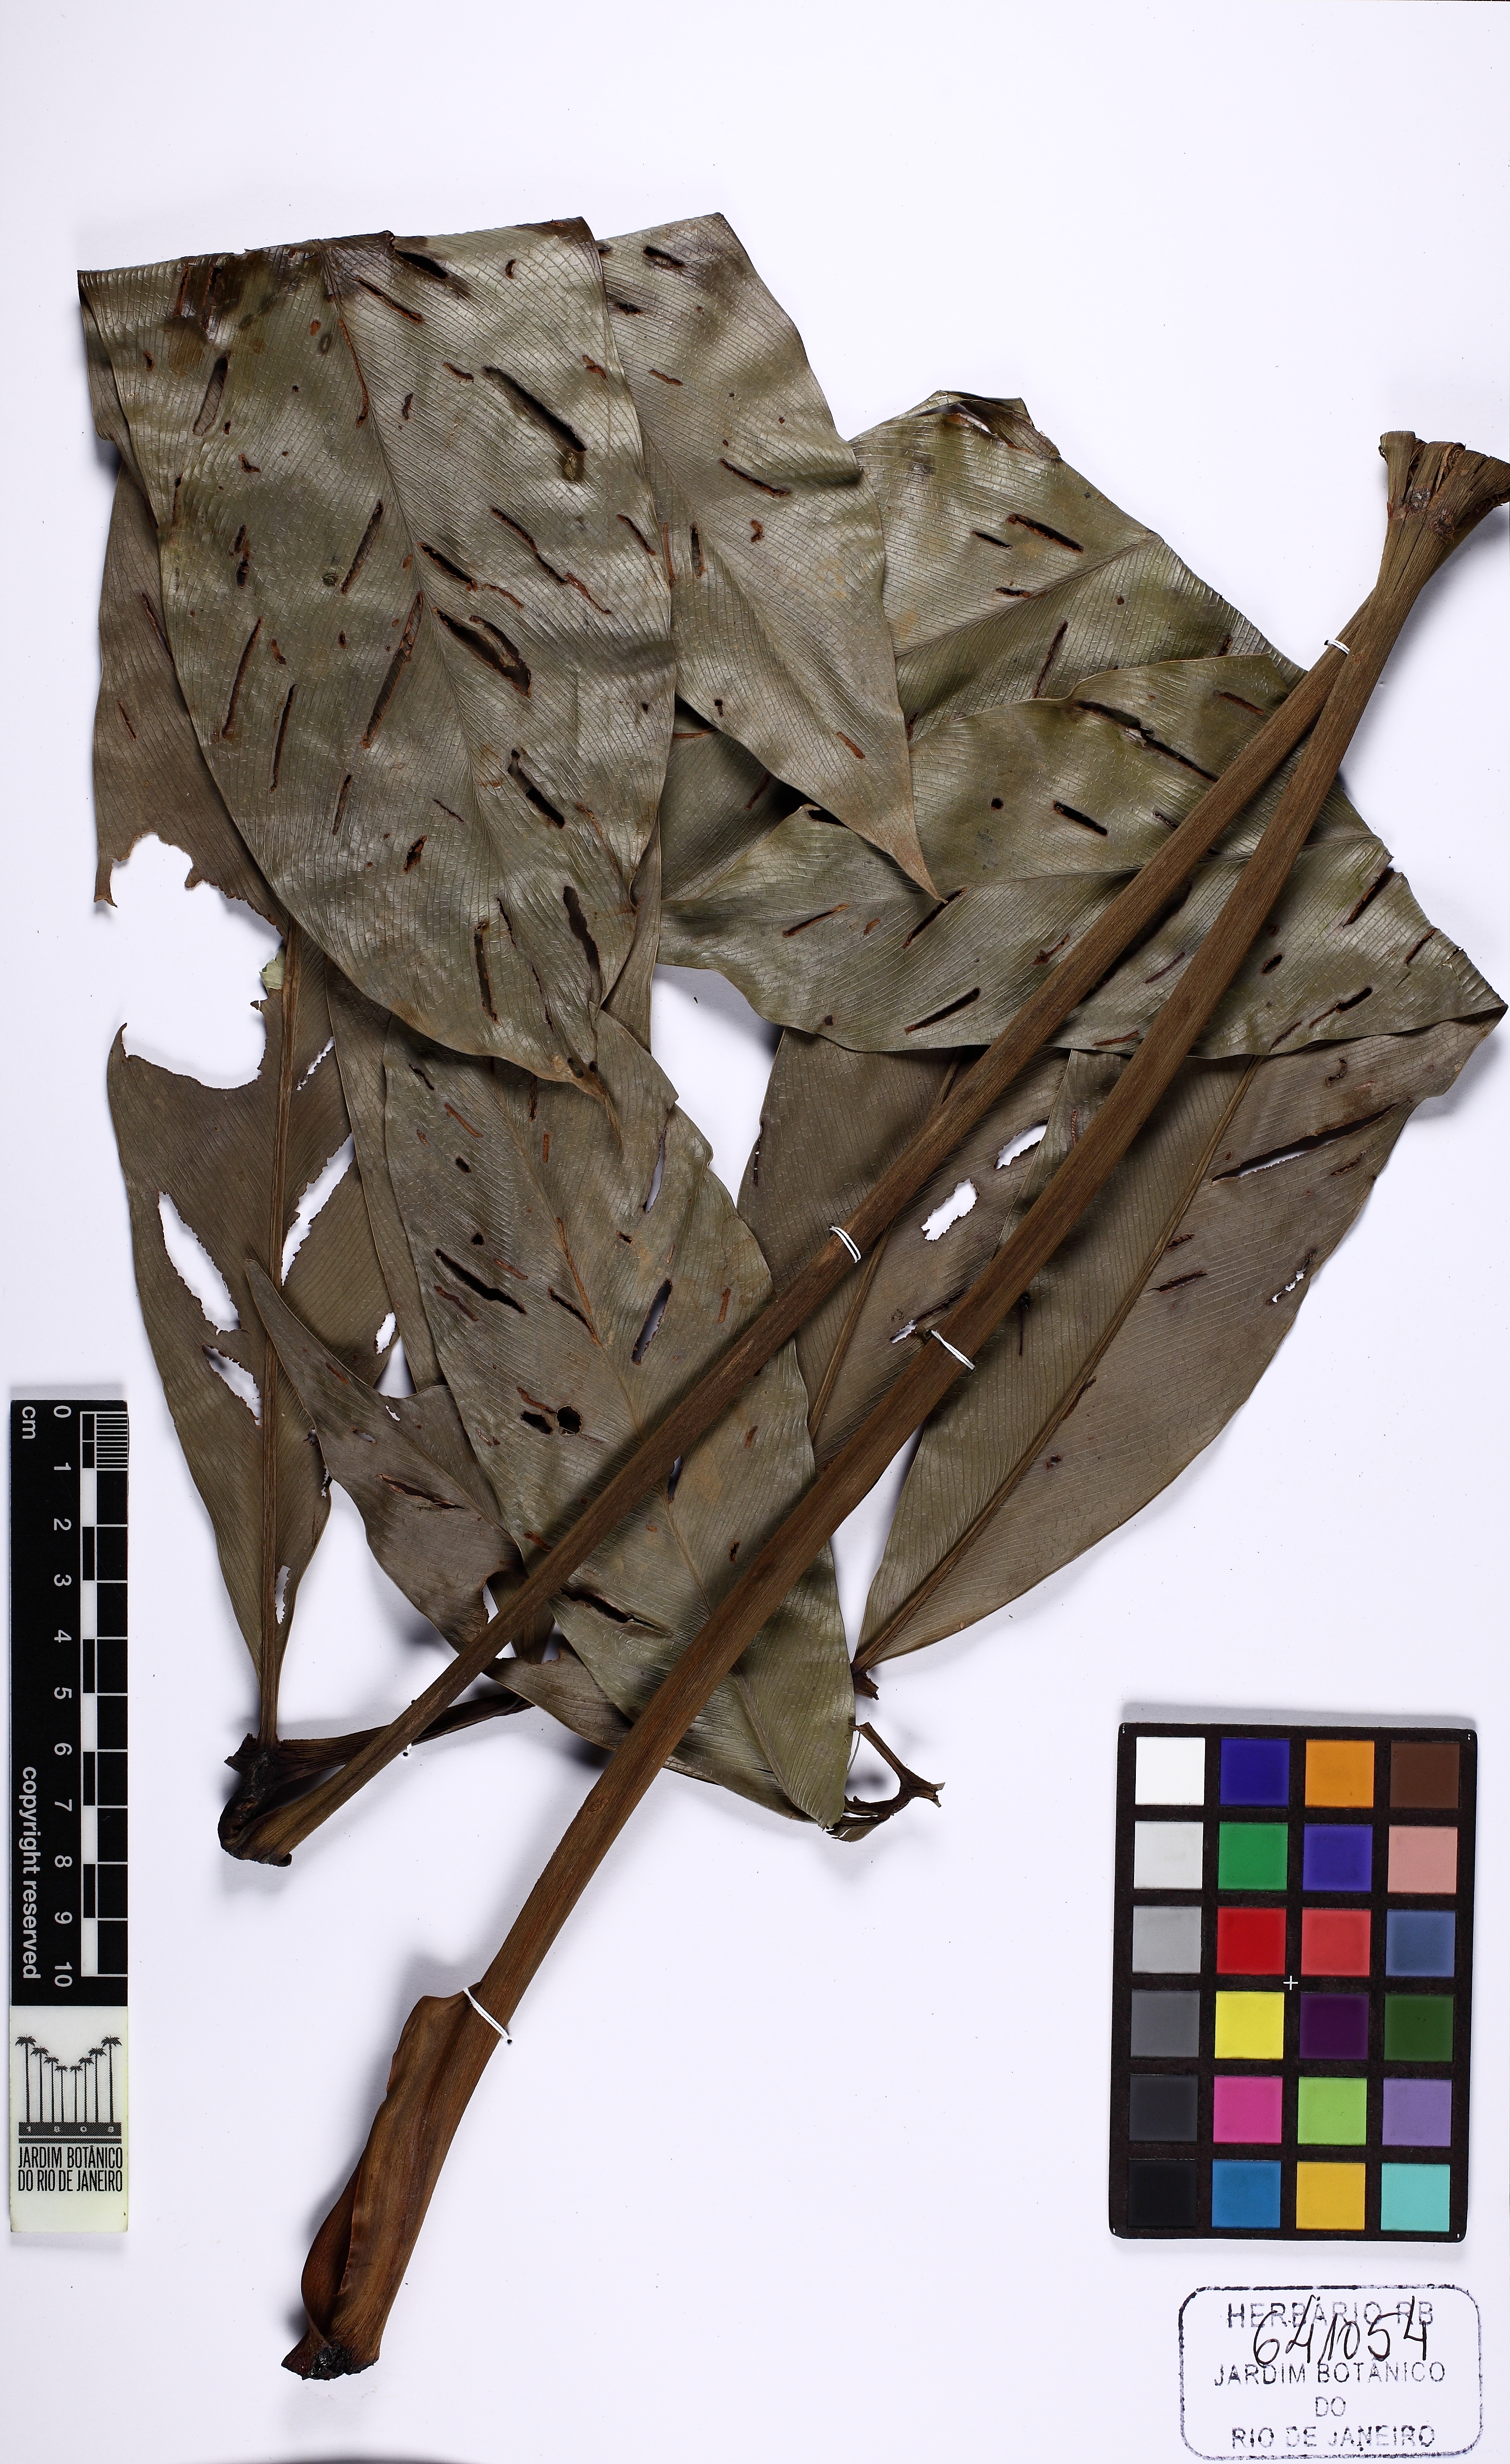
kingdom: Plantae
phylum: Tracheophyta
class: Liliopsida
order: Alismatales
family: Araceae
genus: Thaumatophyllum
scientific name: Thaumatophyllum spruceanum
